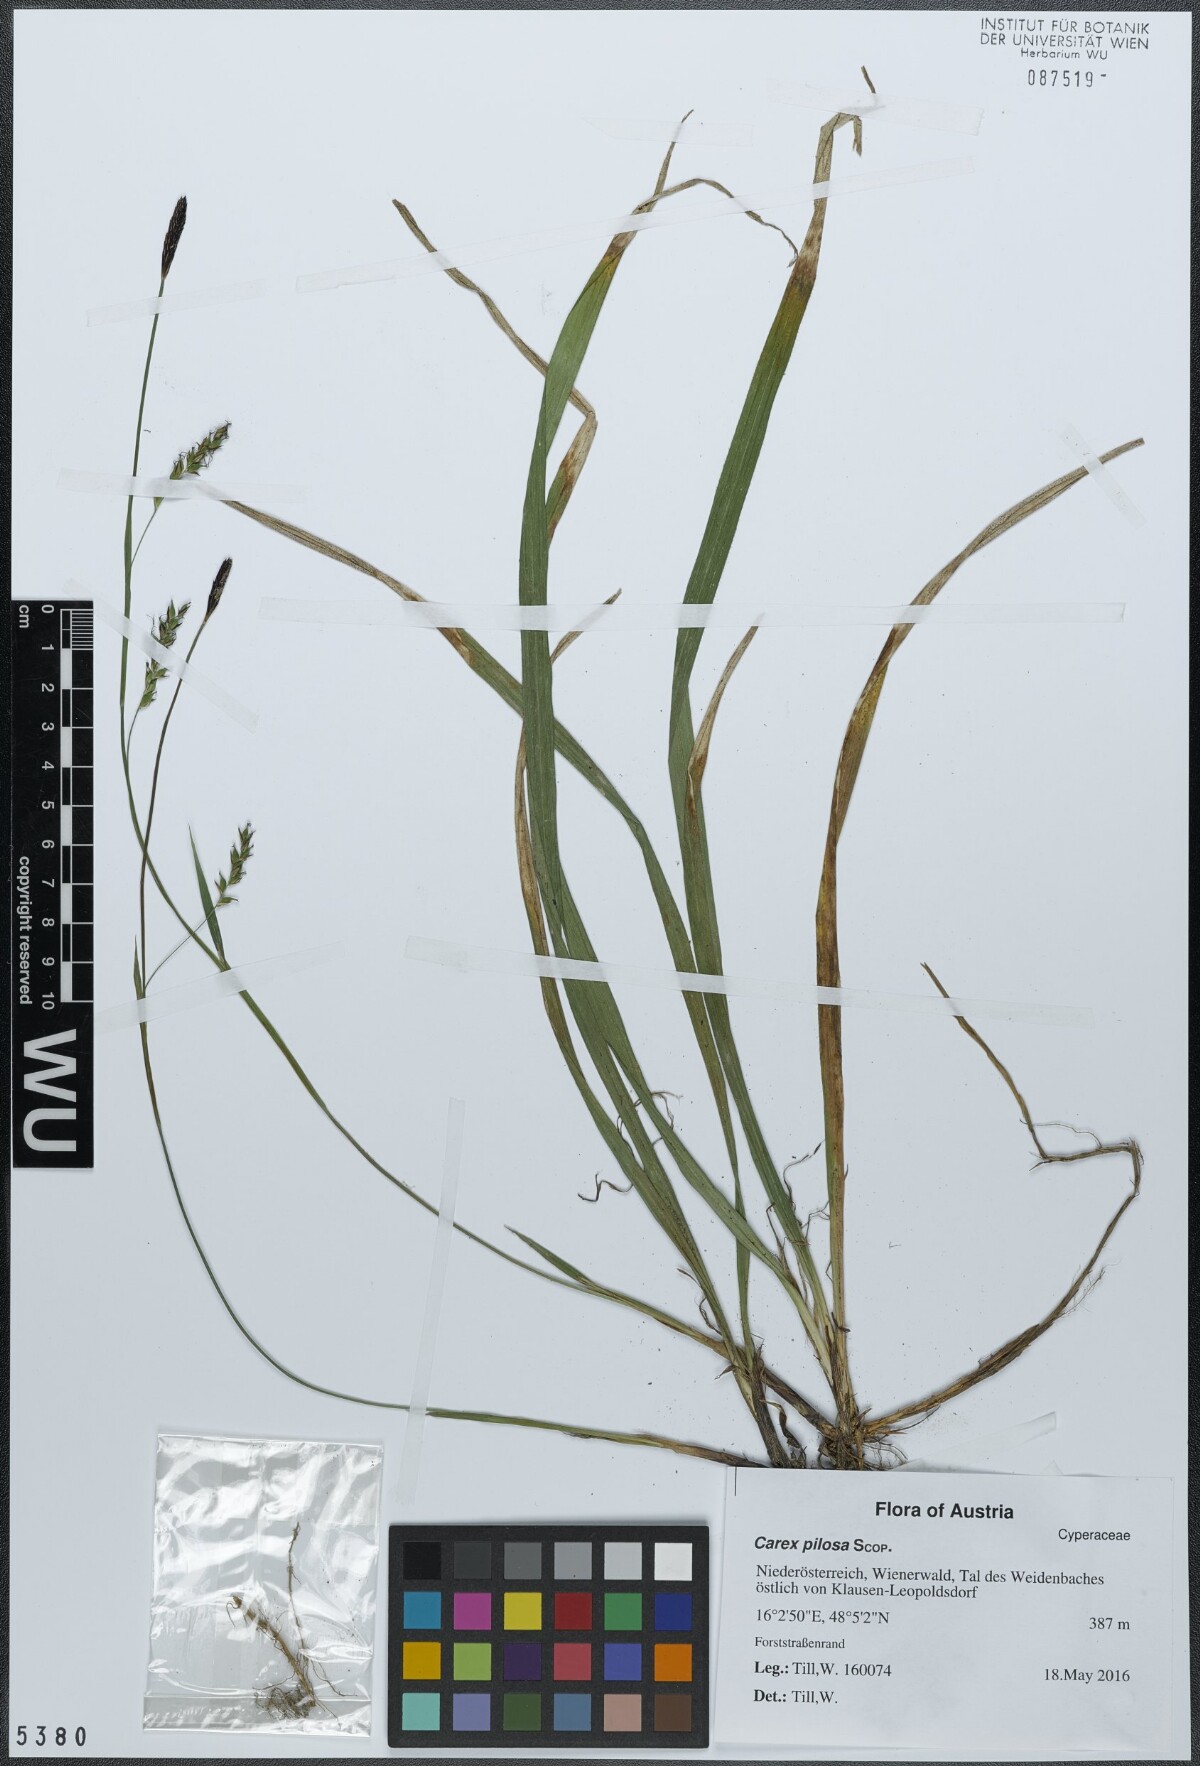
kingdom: Plantae
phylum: Tracheophyta
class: Liliopsida
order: Poales
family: Cyperaceae
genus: Carex
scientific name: Carex pilosa
